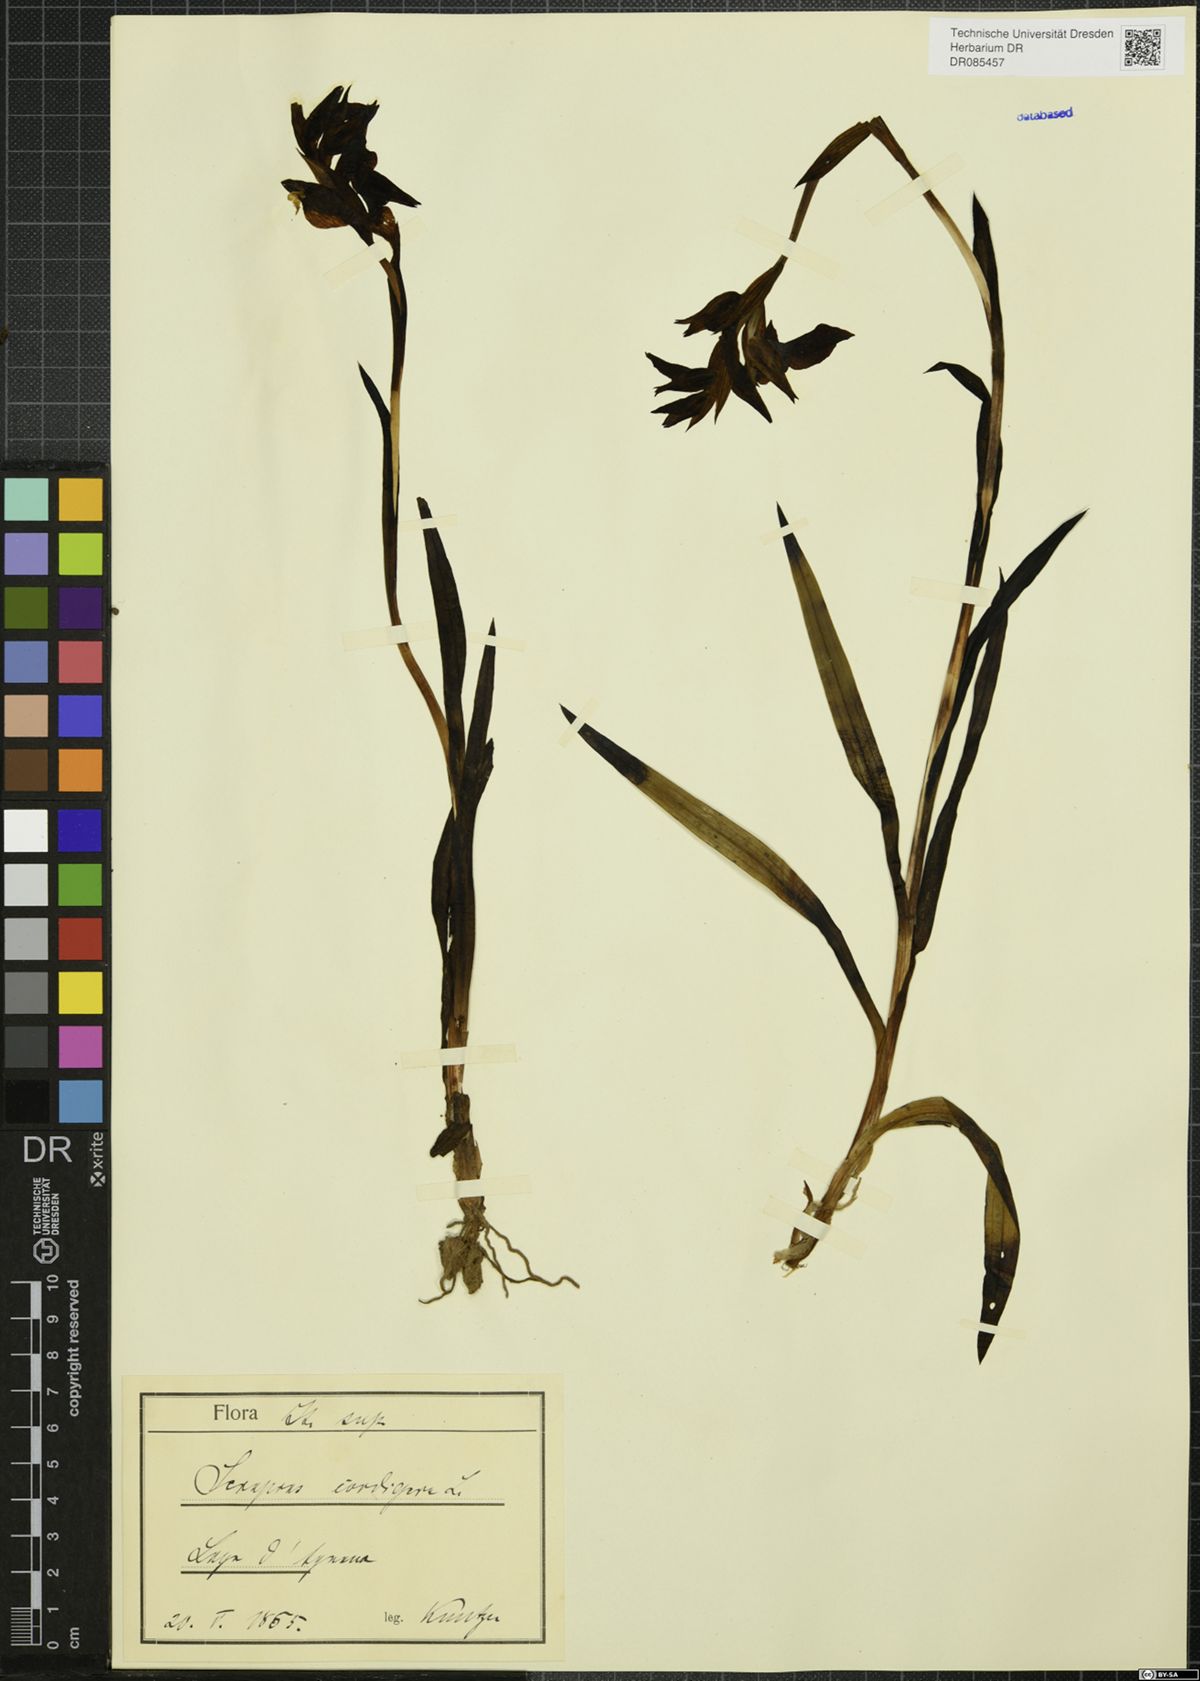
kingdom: Plantae
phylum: Tracheophyta
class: Liliopsida
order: Asparagales
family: Orchidaceae
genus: Serapias
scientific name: Serapias cordigera
